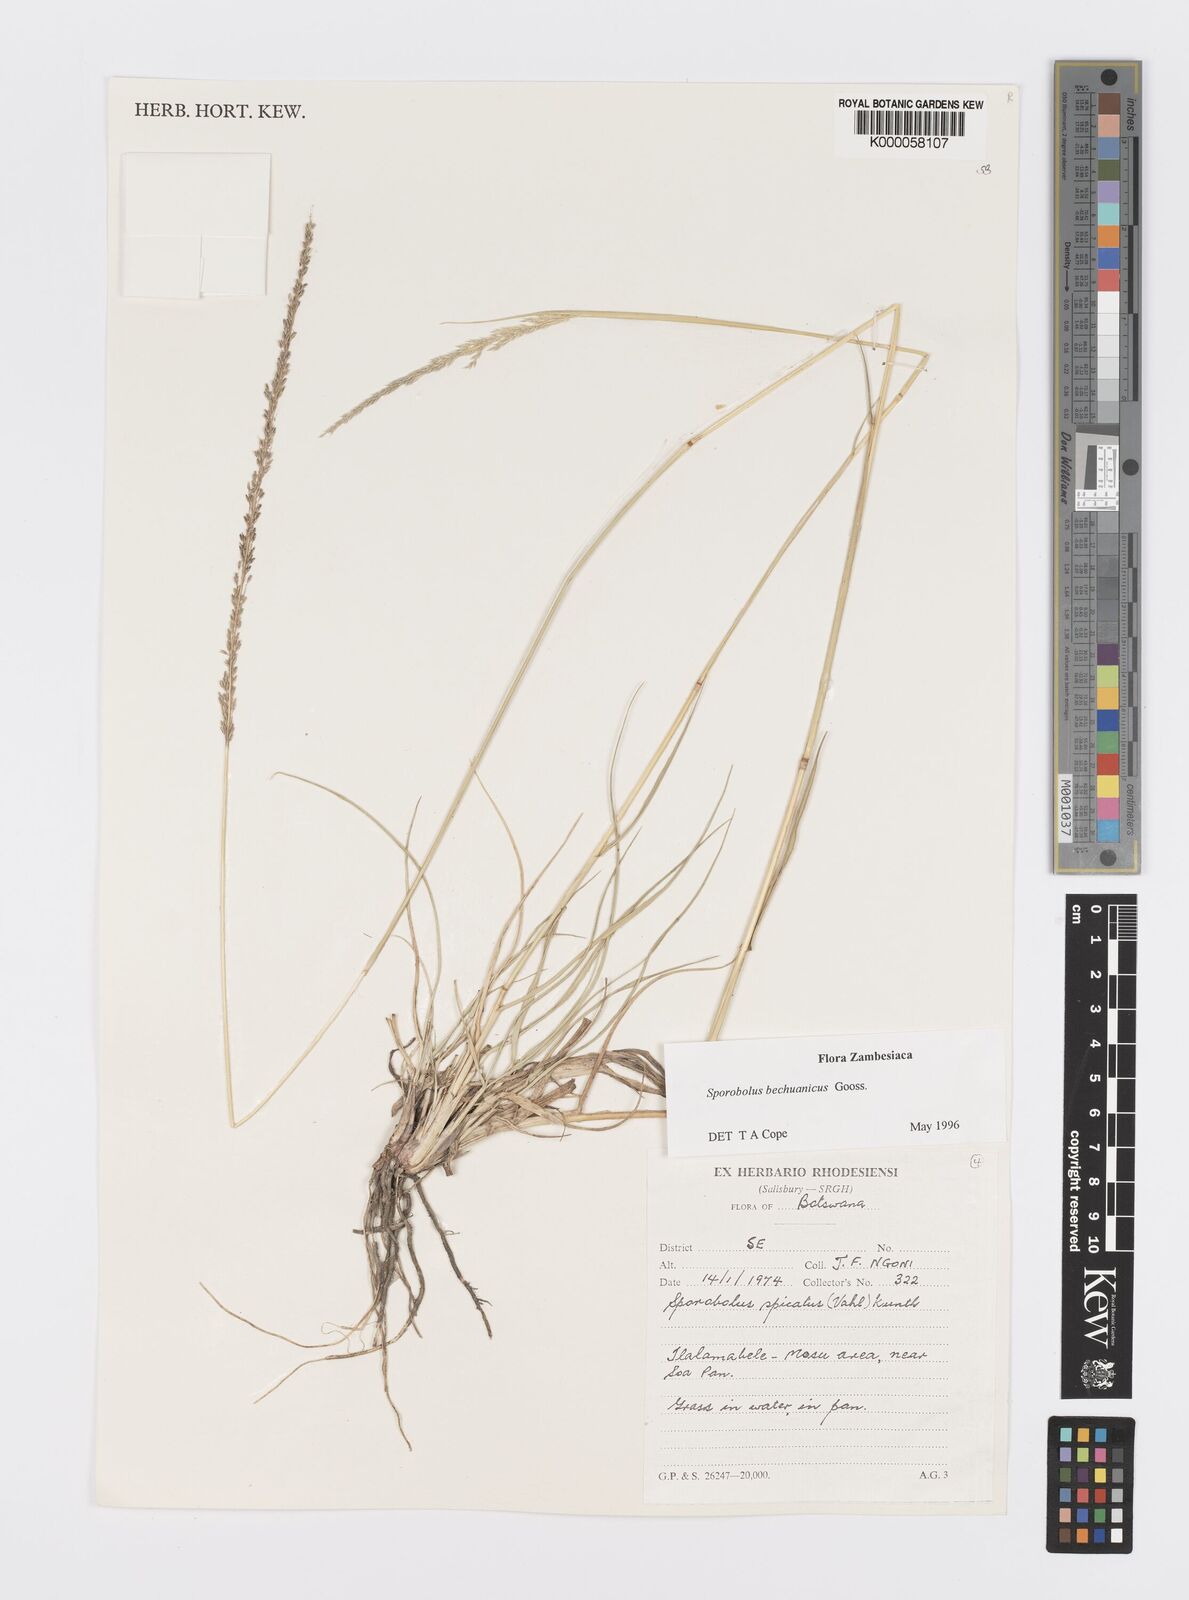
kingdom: Plantae
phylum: Tracheophyta
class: Liliopsida
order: Poales
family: Poaceae
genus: Sporobolus
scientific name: Sporobolus bechuanicus
